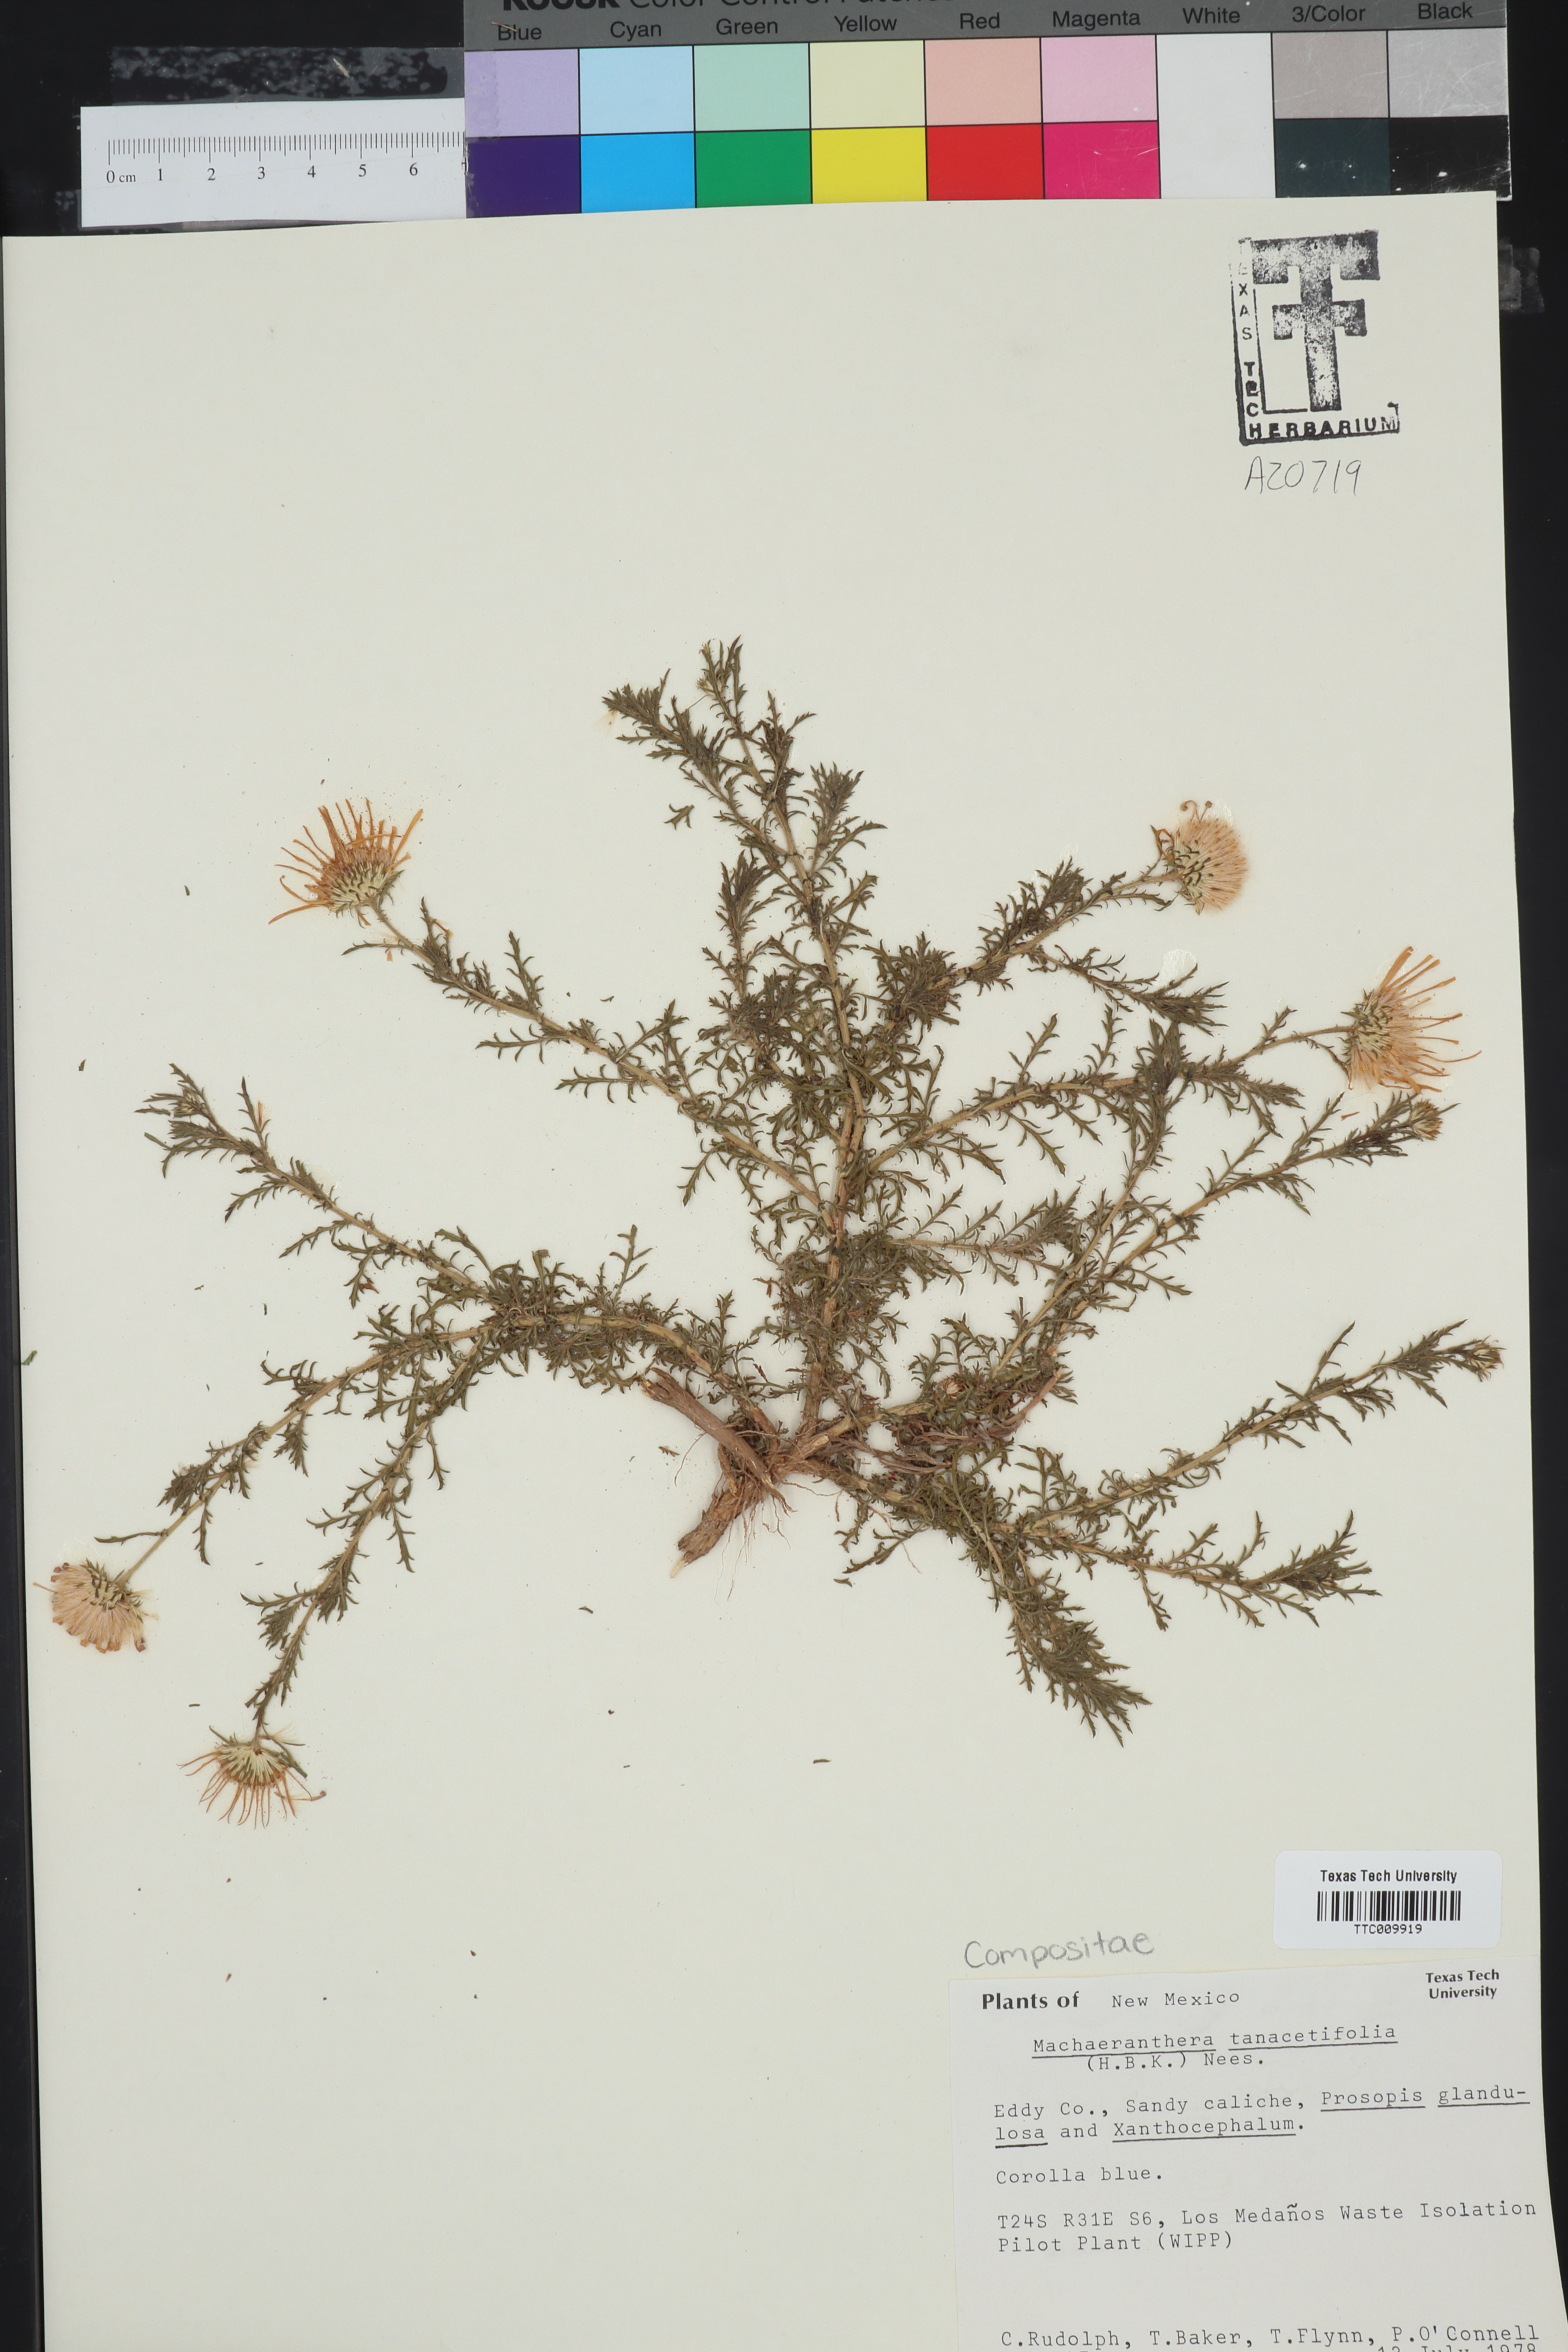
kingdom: Plantae
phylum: Tracheophyta
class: Magnoliopsida
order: Asterales
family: Asteraceae
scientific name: Asteraceae
